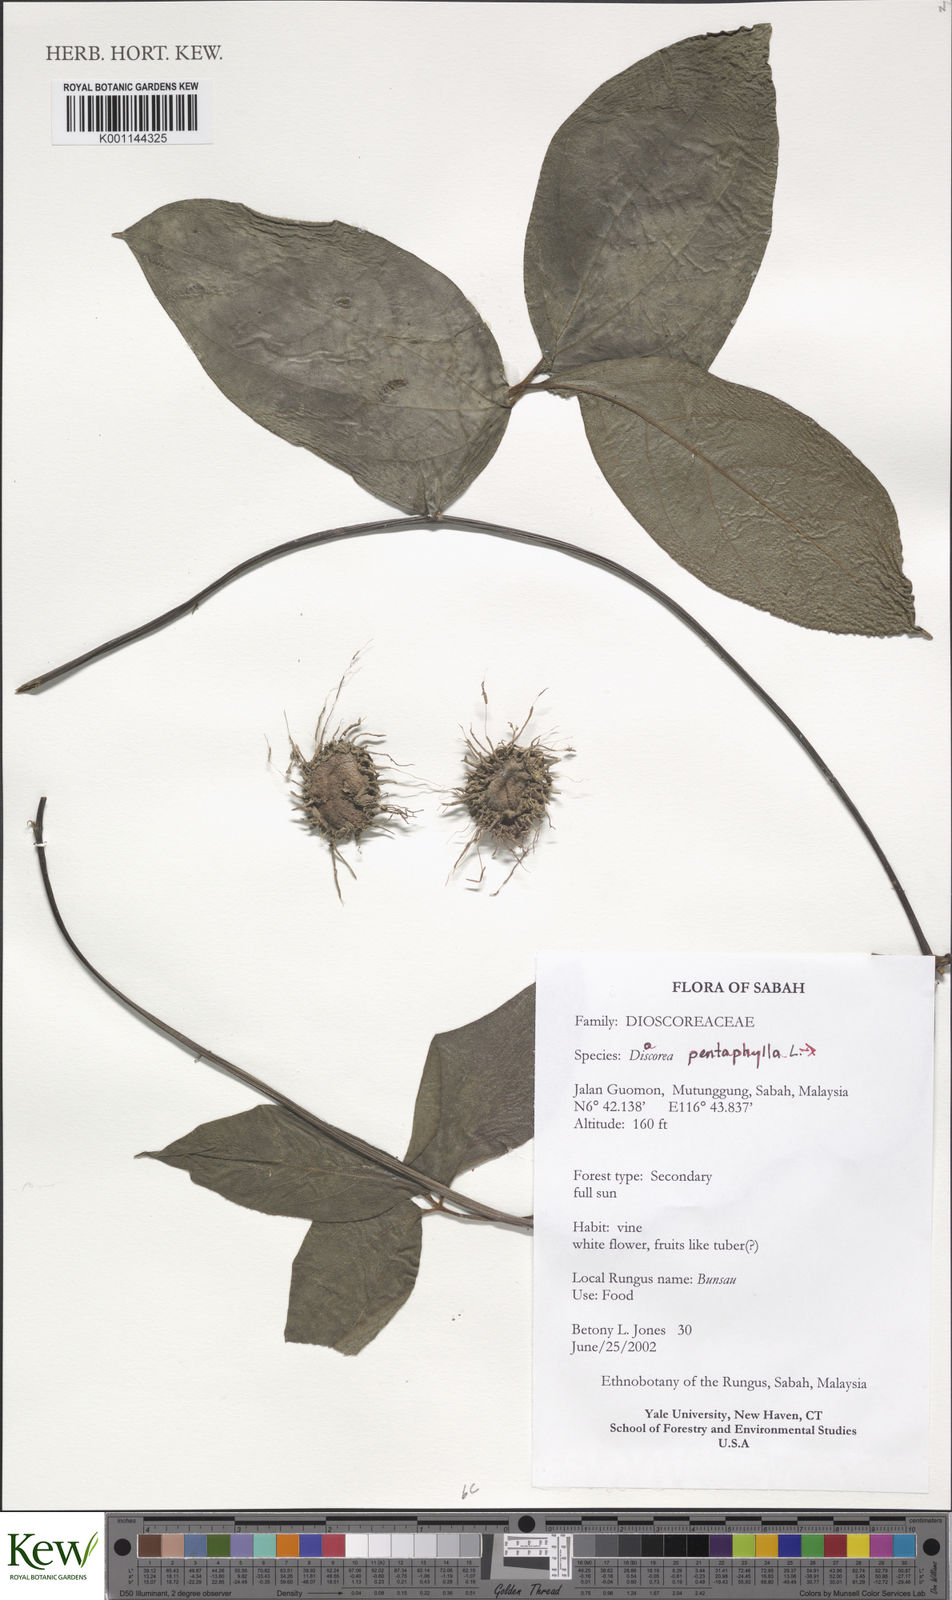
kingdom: Plantae
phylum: Tracheophyta
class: Liliopsida
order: Dioscoreales
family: Dioscoreaceae
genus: Dioscorea
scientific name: Dioscorea pentaphylla
